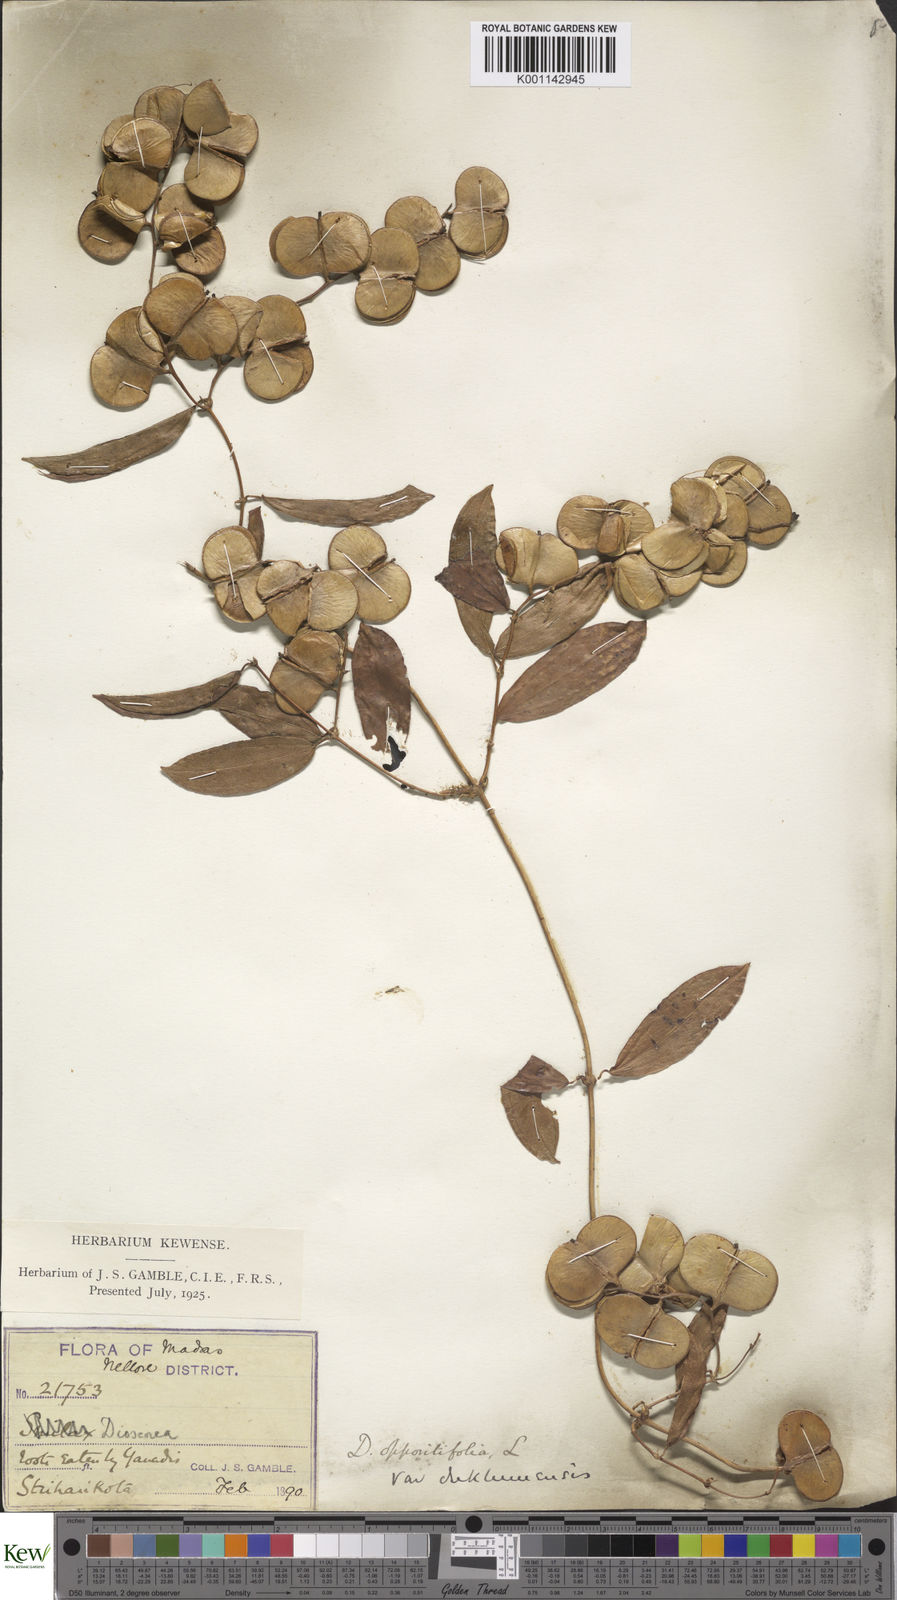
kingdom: Plantae
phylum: Tracheophyta
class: Liliopsida
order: Dioscoreales
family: Dioscoreaceae
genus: Dioscorea
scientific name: Dioscorea oppositifolia
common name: Chinese yam
